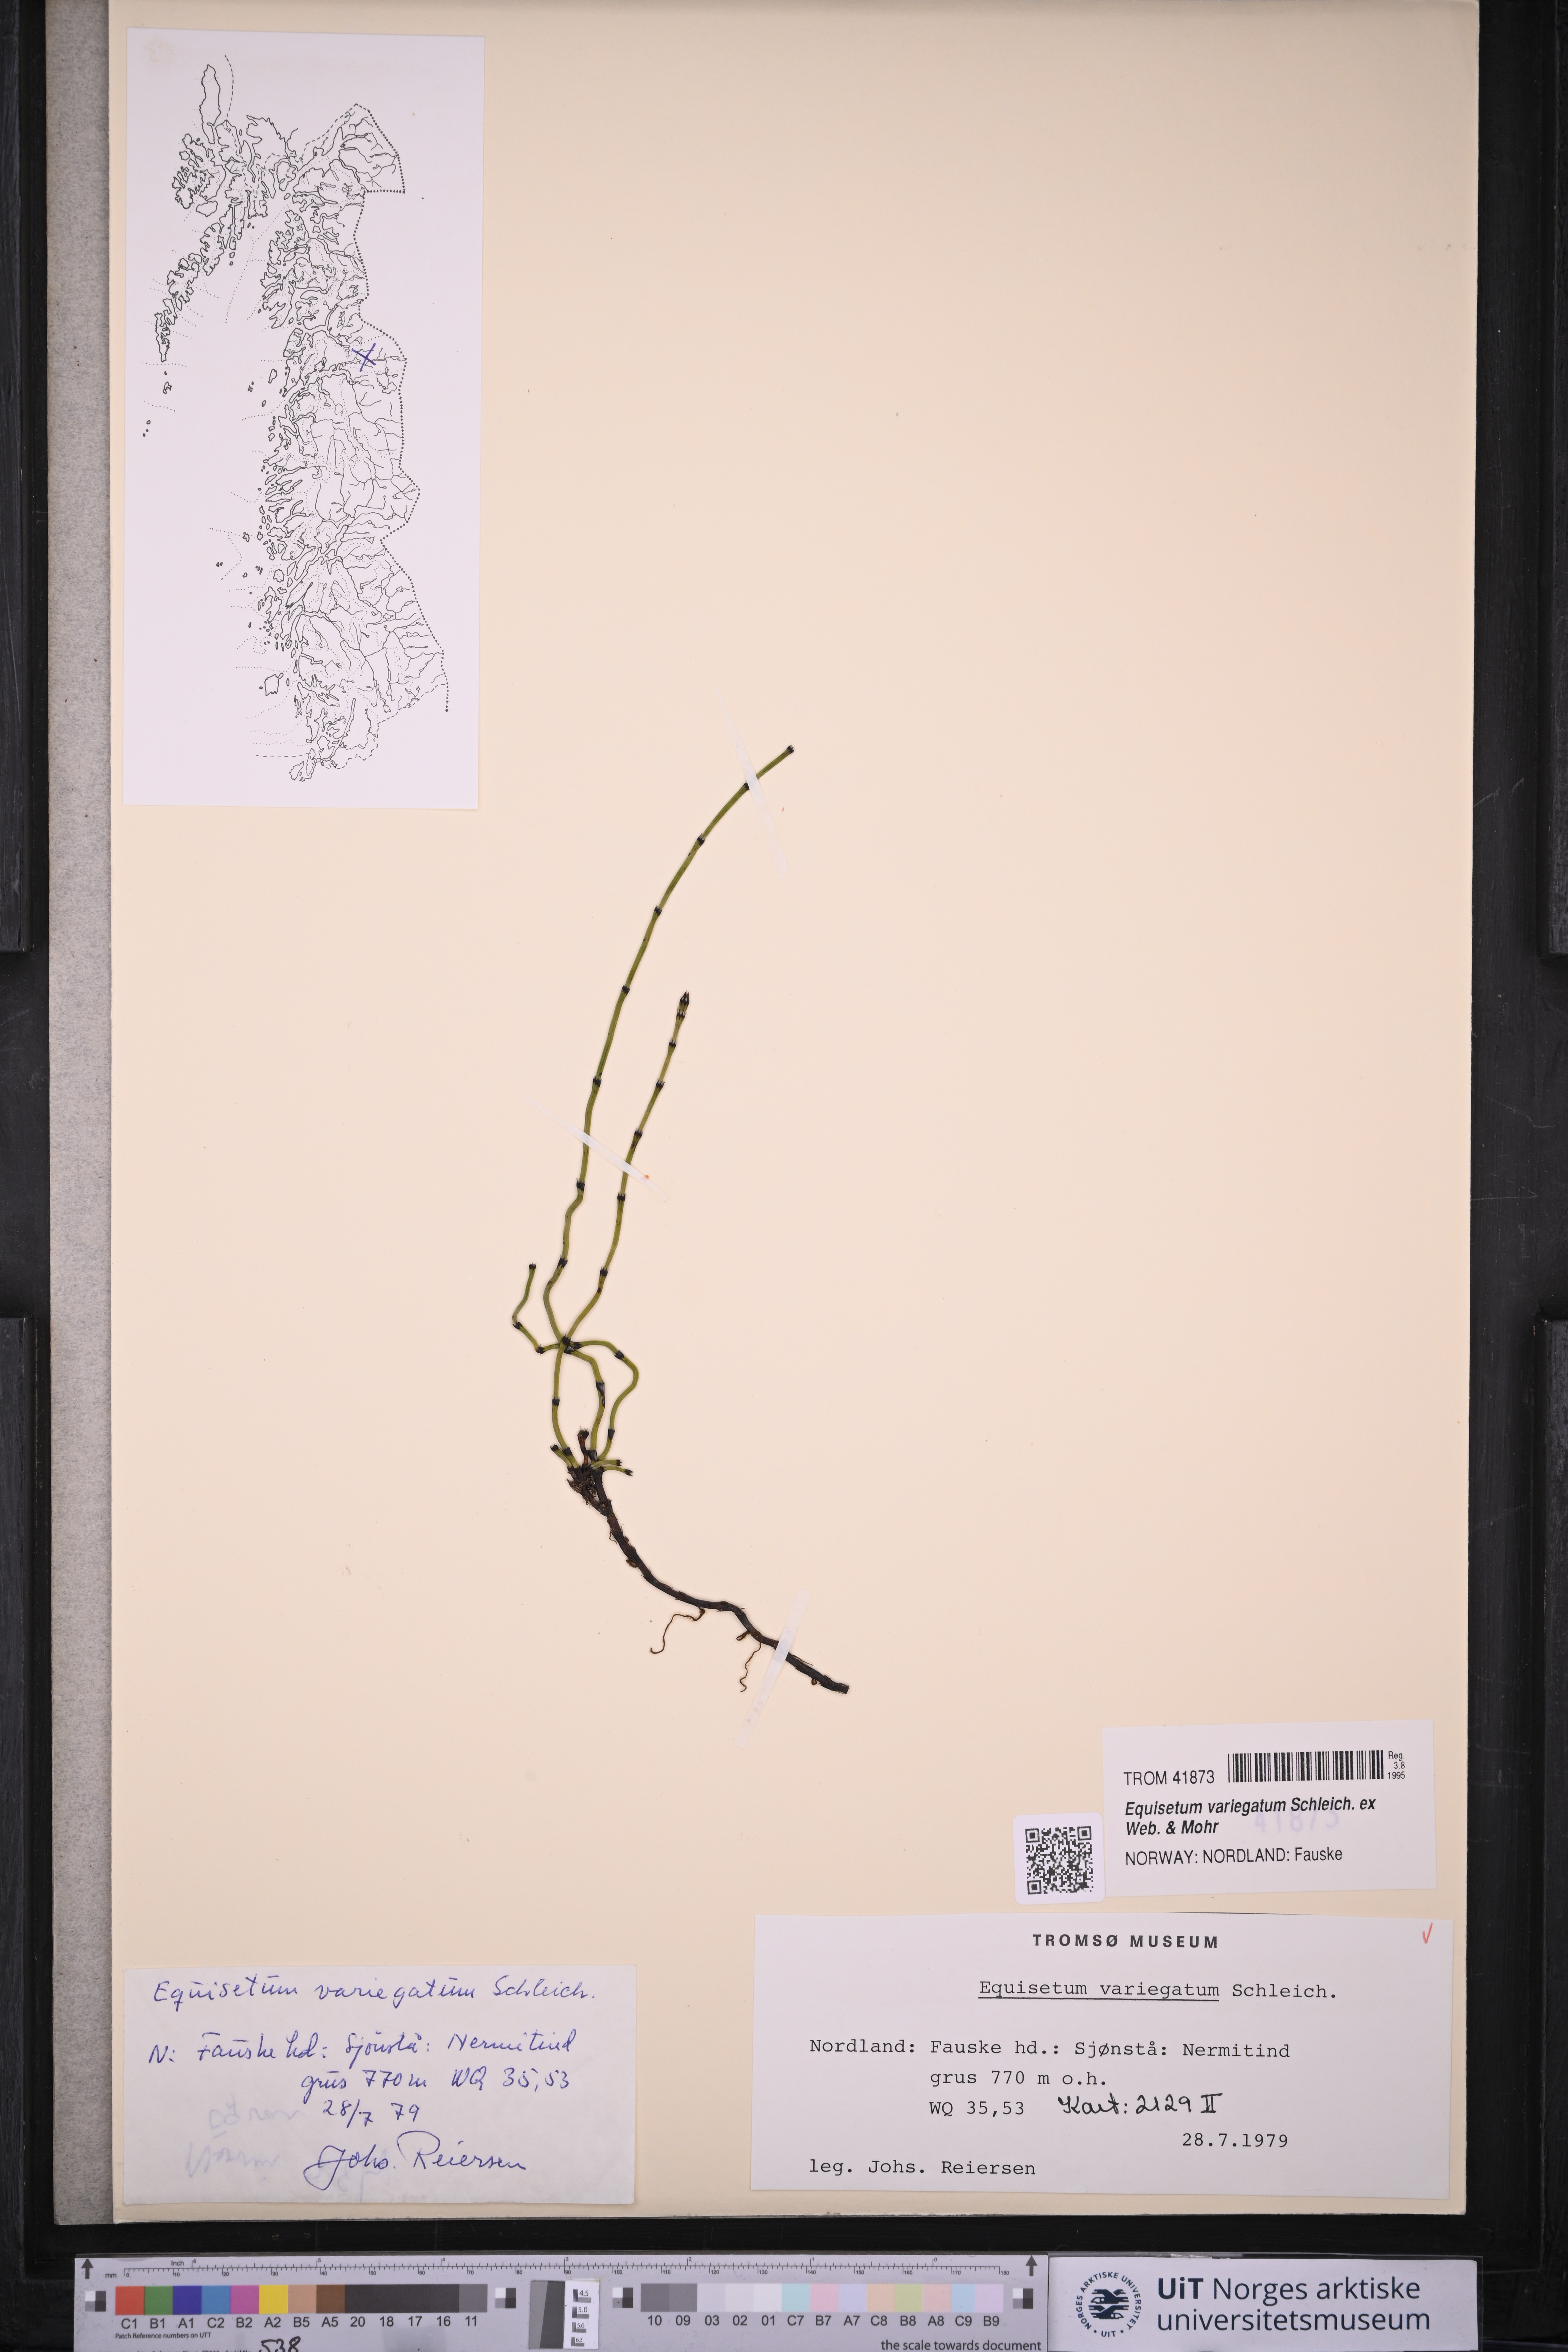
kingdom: Plantae
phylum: Tracheophyta
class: Polypodiopsida
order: Equisetales
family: Equisetaceae
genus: Equisetum
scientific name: Equisetum variegatum
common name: Variegated horsetail
